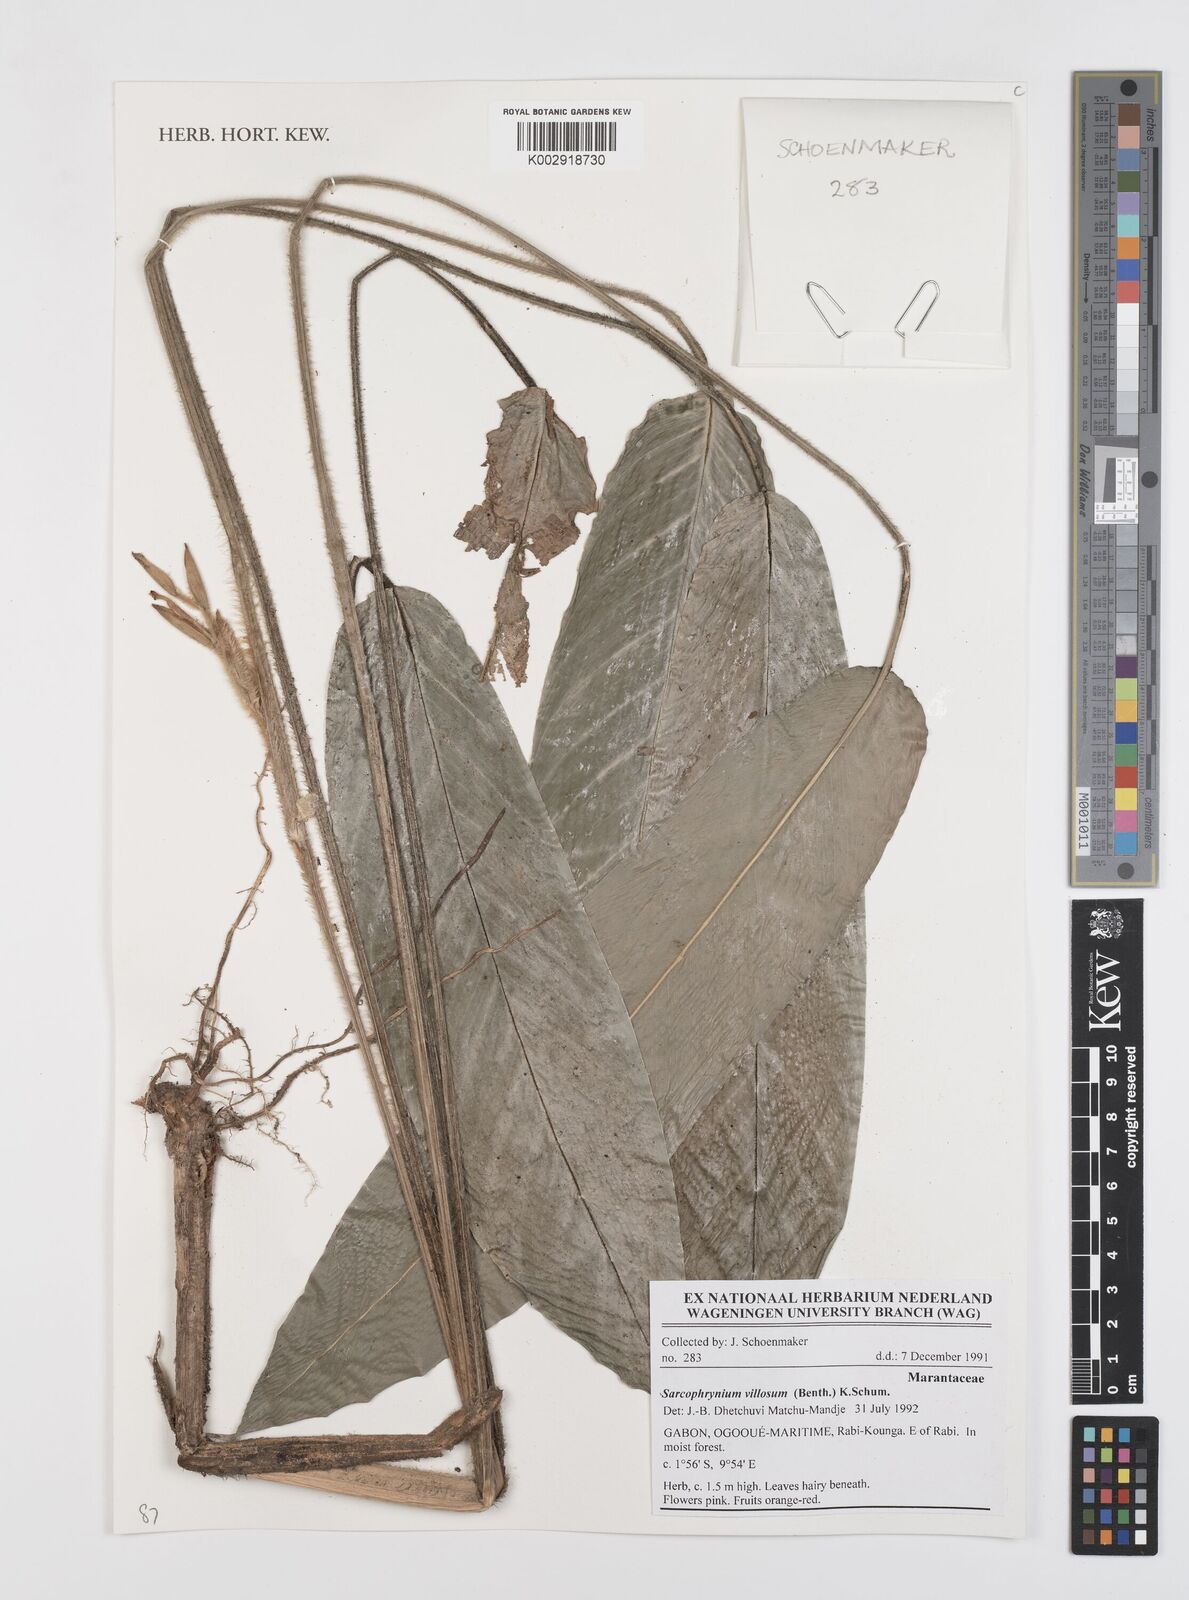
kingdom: Plantae
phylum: Tracheophyta
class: Liliopsida
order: Zingiberales
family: Marantaceae
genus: Sarcophrynium
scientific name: Sarcophrynium villosum
